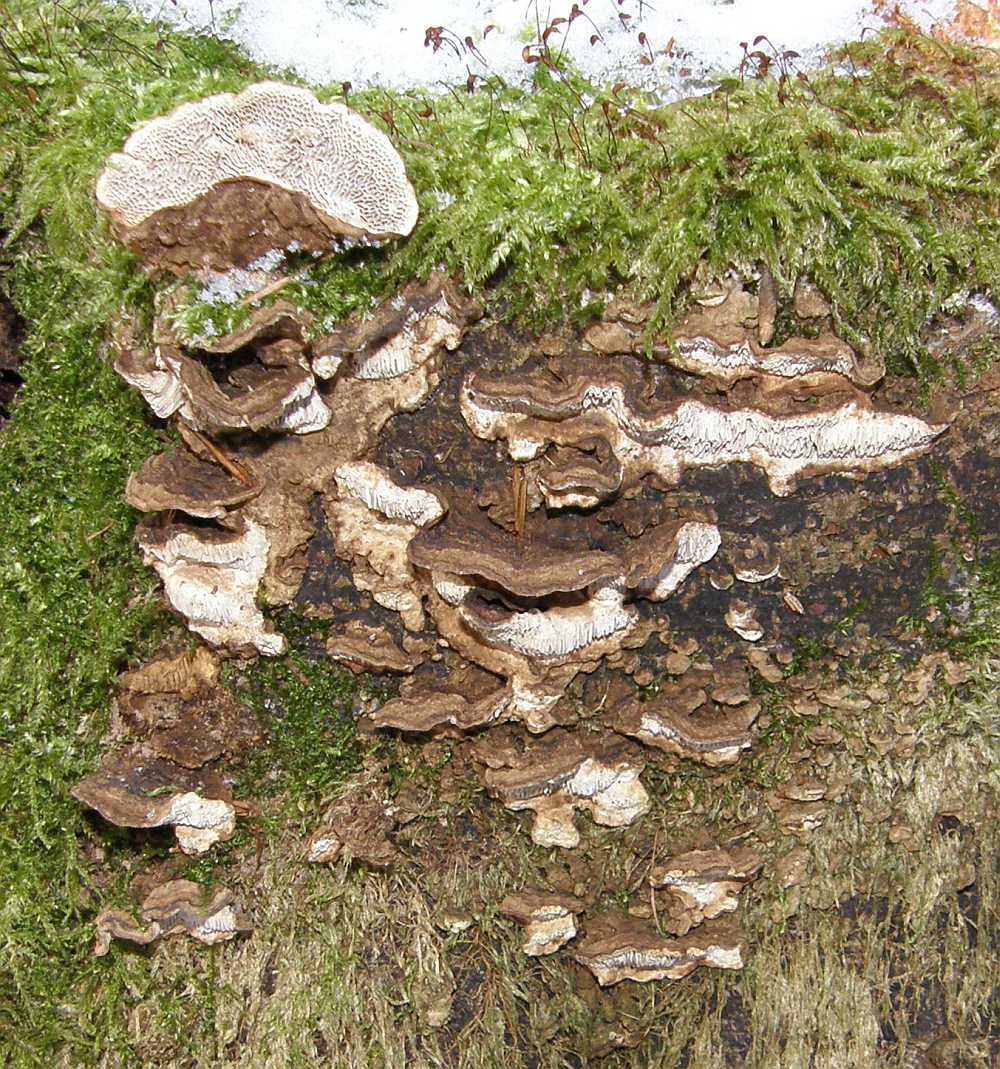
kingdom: Fungi
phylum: Basidiomycota
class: Agaricomycetes
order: Polyporales
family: Polyporaceae
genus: Podofomes
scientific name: Podofomes mollis
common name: blød begporesvamp
